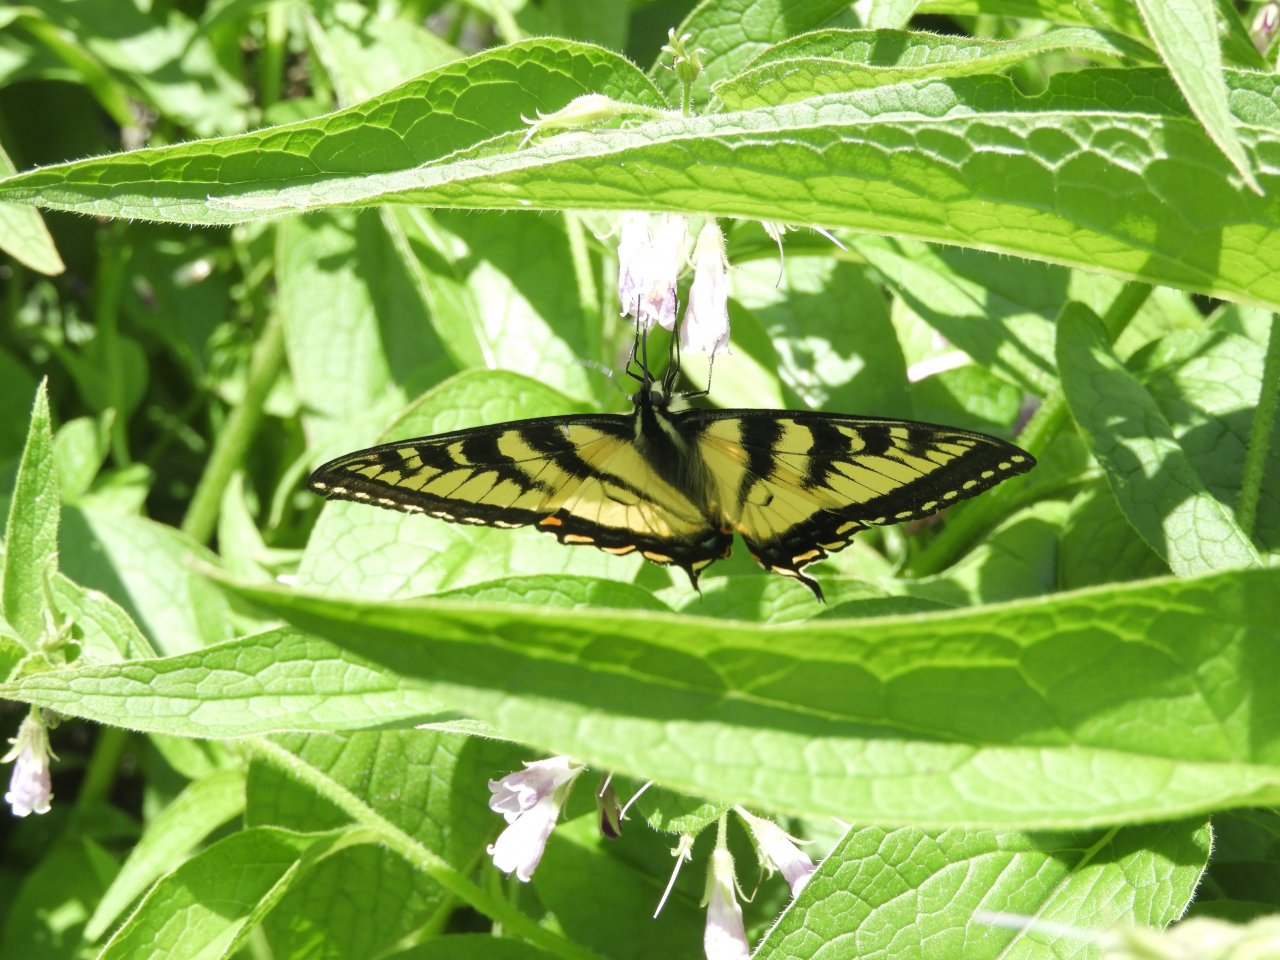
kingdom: Animalia
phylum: Arthropoda
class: Insecta
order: Lepidoptera
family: Papilionidae
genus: Pterourus
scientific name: Pterourus canadensis
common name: Canadian Tiger Swallowtail
